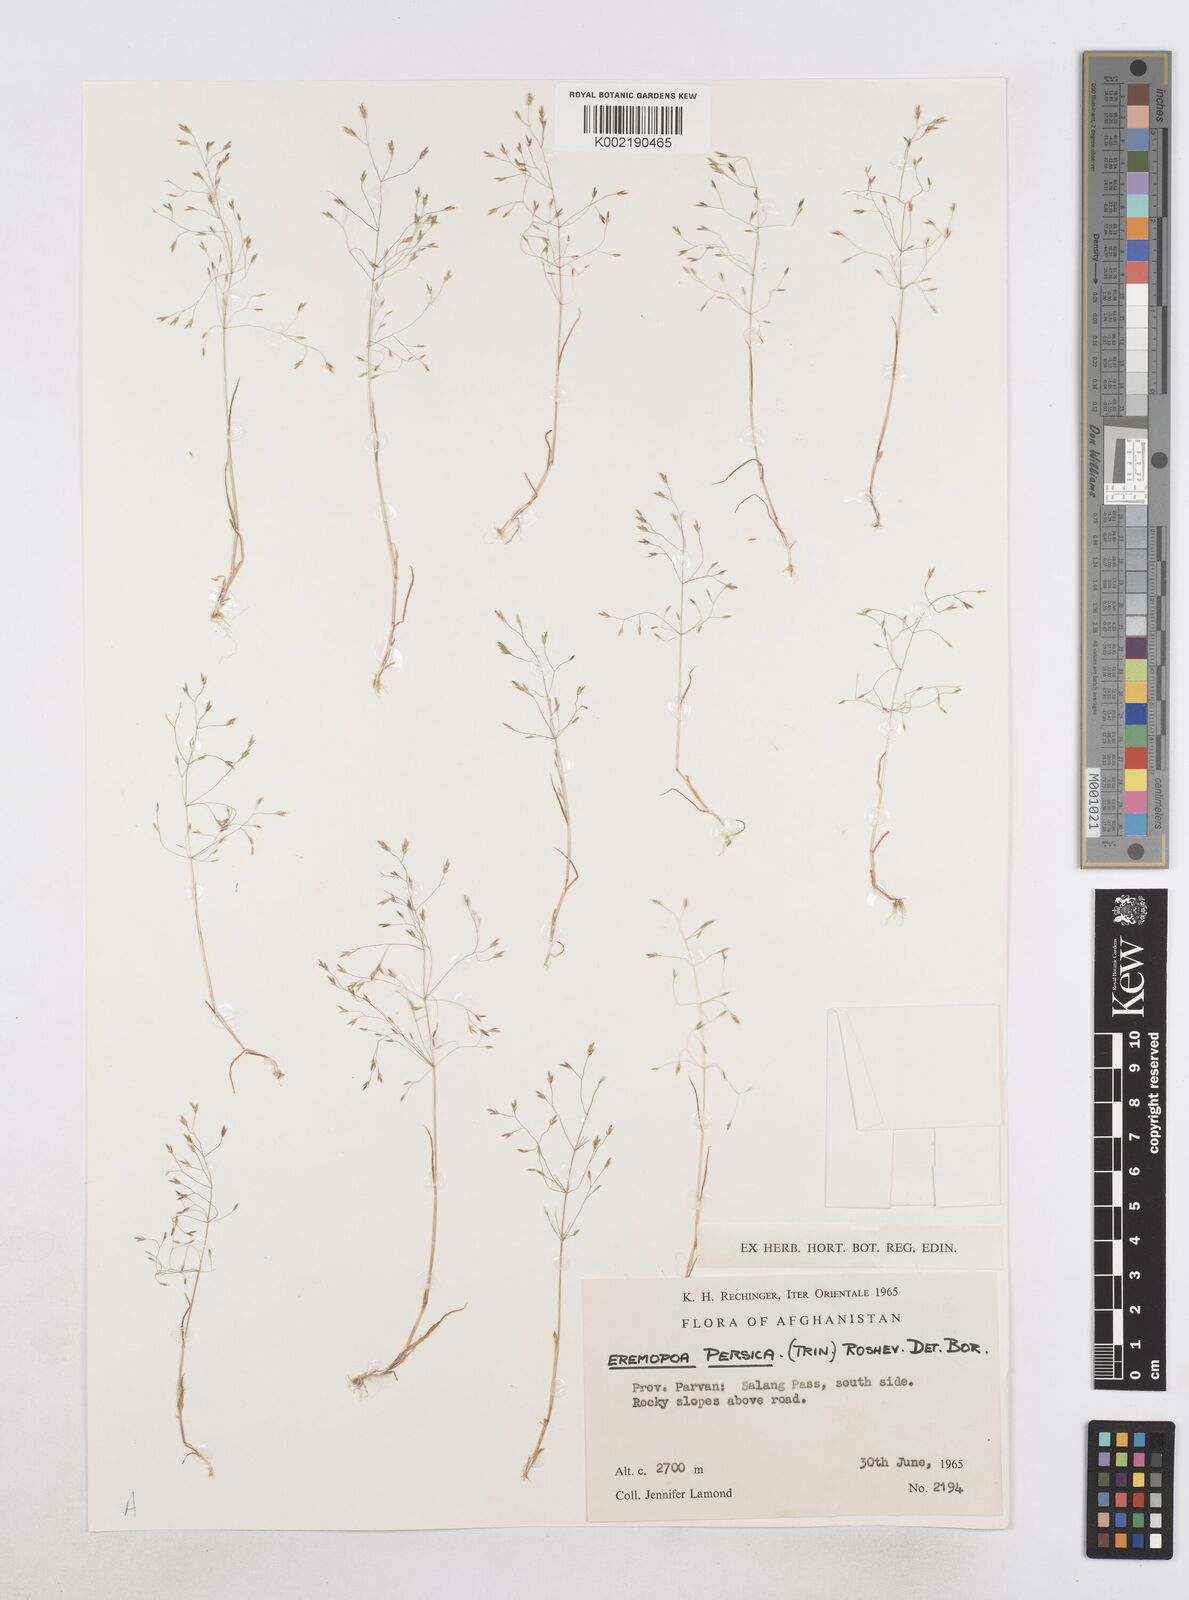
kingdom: Plantae
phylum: Tracheophyta
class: Liliopsida
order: Poales
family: Poaceae
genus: Poa
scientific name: Poa diaphora
